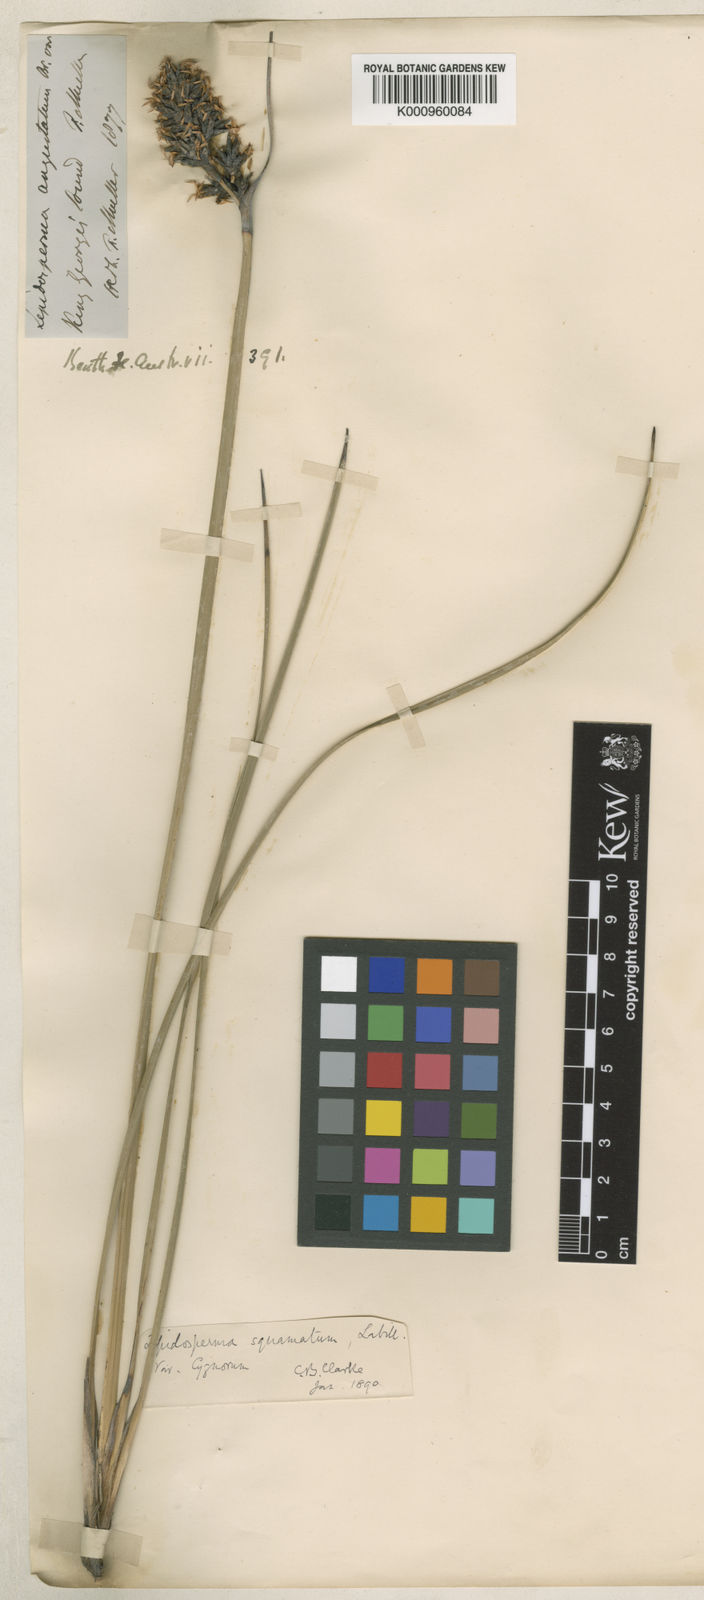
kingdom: Plantae
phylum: Tracheophyta
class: Liliopsida
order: Poales
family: Cyperaceae
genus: Lepidosperma
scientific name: Lepidosperma angustatum
